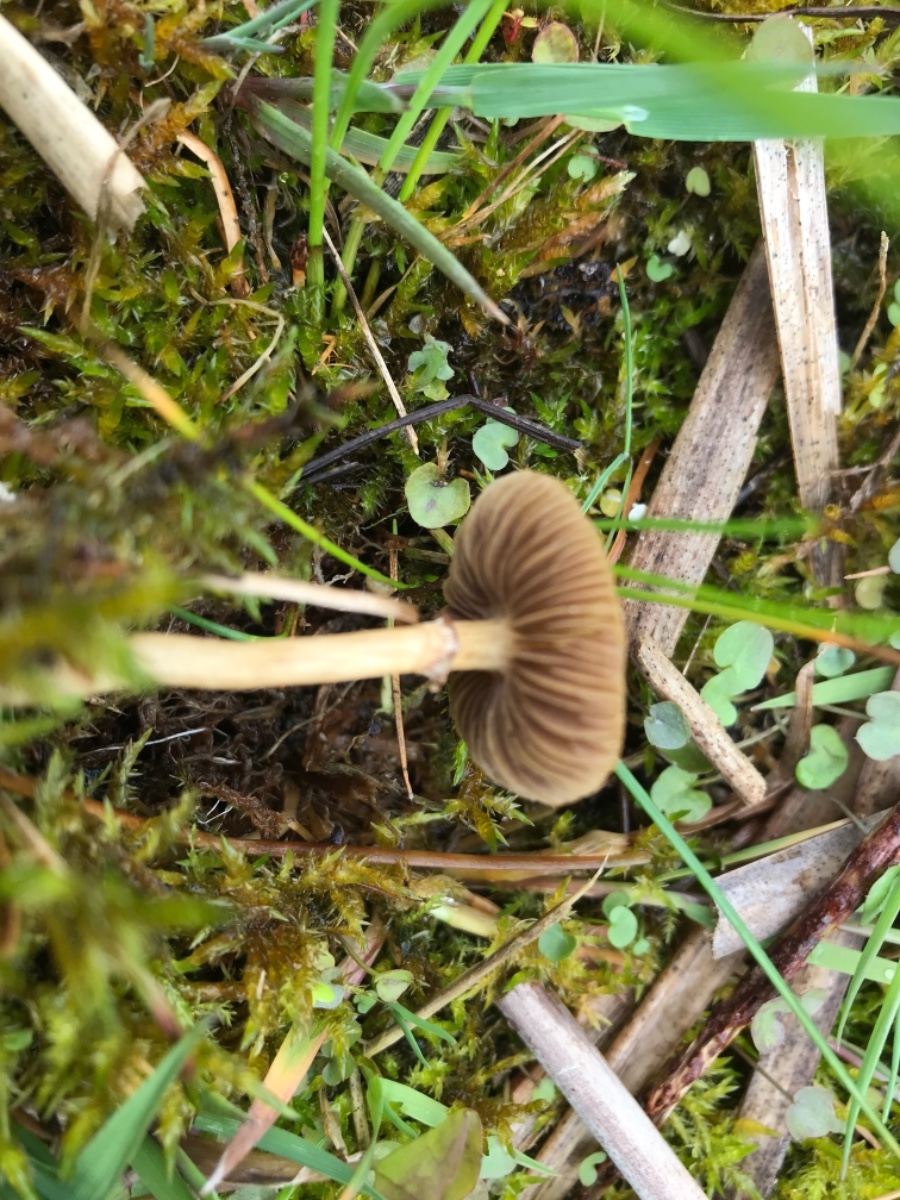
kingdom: Fungi
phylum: Basidiomycota
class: Agaricomycetes
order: Agaricales
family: Strophariaceae
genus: Agrocybe
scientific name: Agrocybe elatella
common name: mose-agerhat
